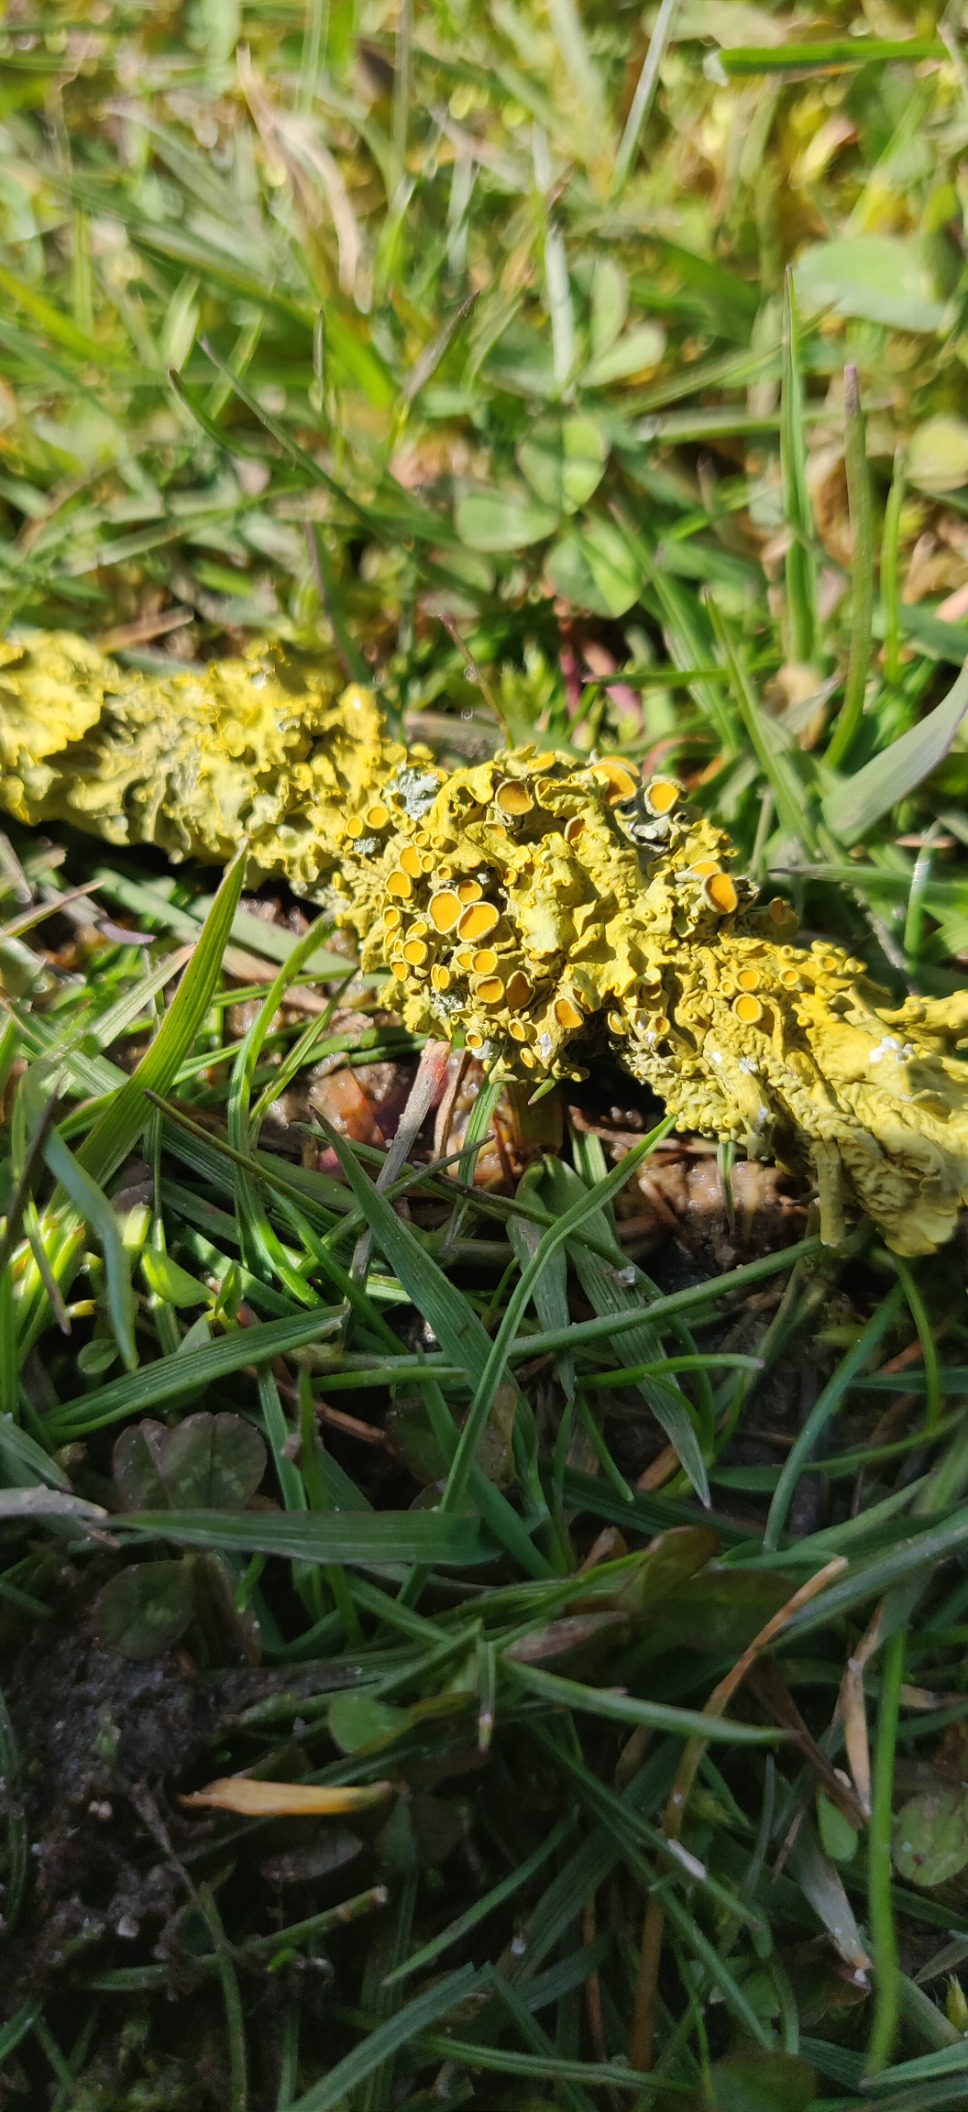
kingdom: Fungi
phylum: Ascomycota
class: Lecanoromycetes
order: Teloschistales
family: Teloschistaceae
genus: Xanthoria
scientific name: Xanthoria parietina
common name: Almindelig væggelav
